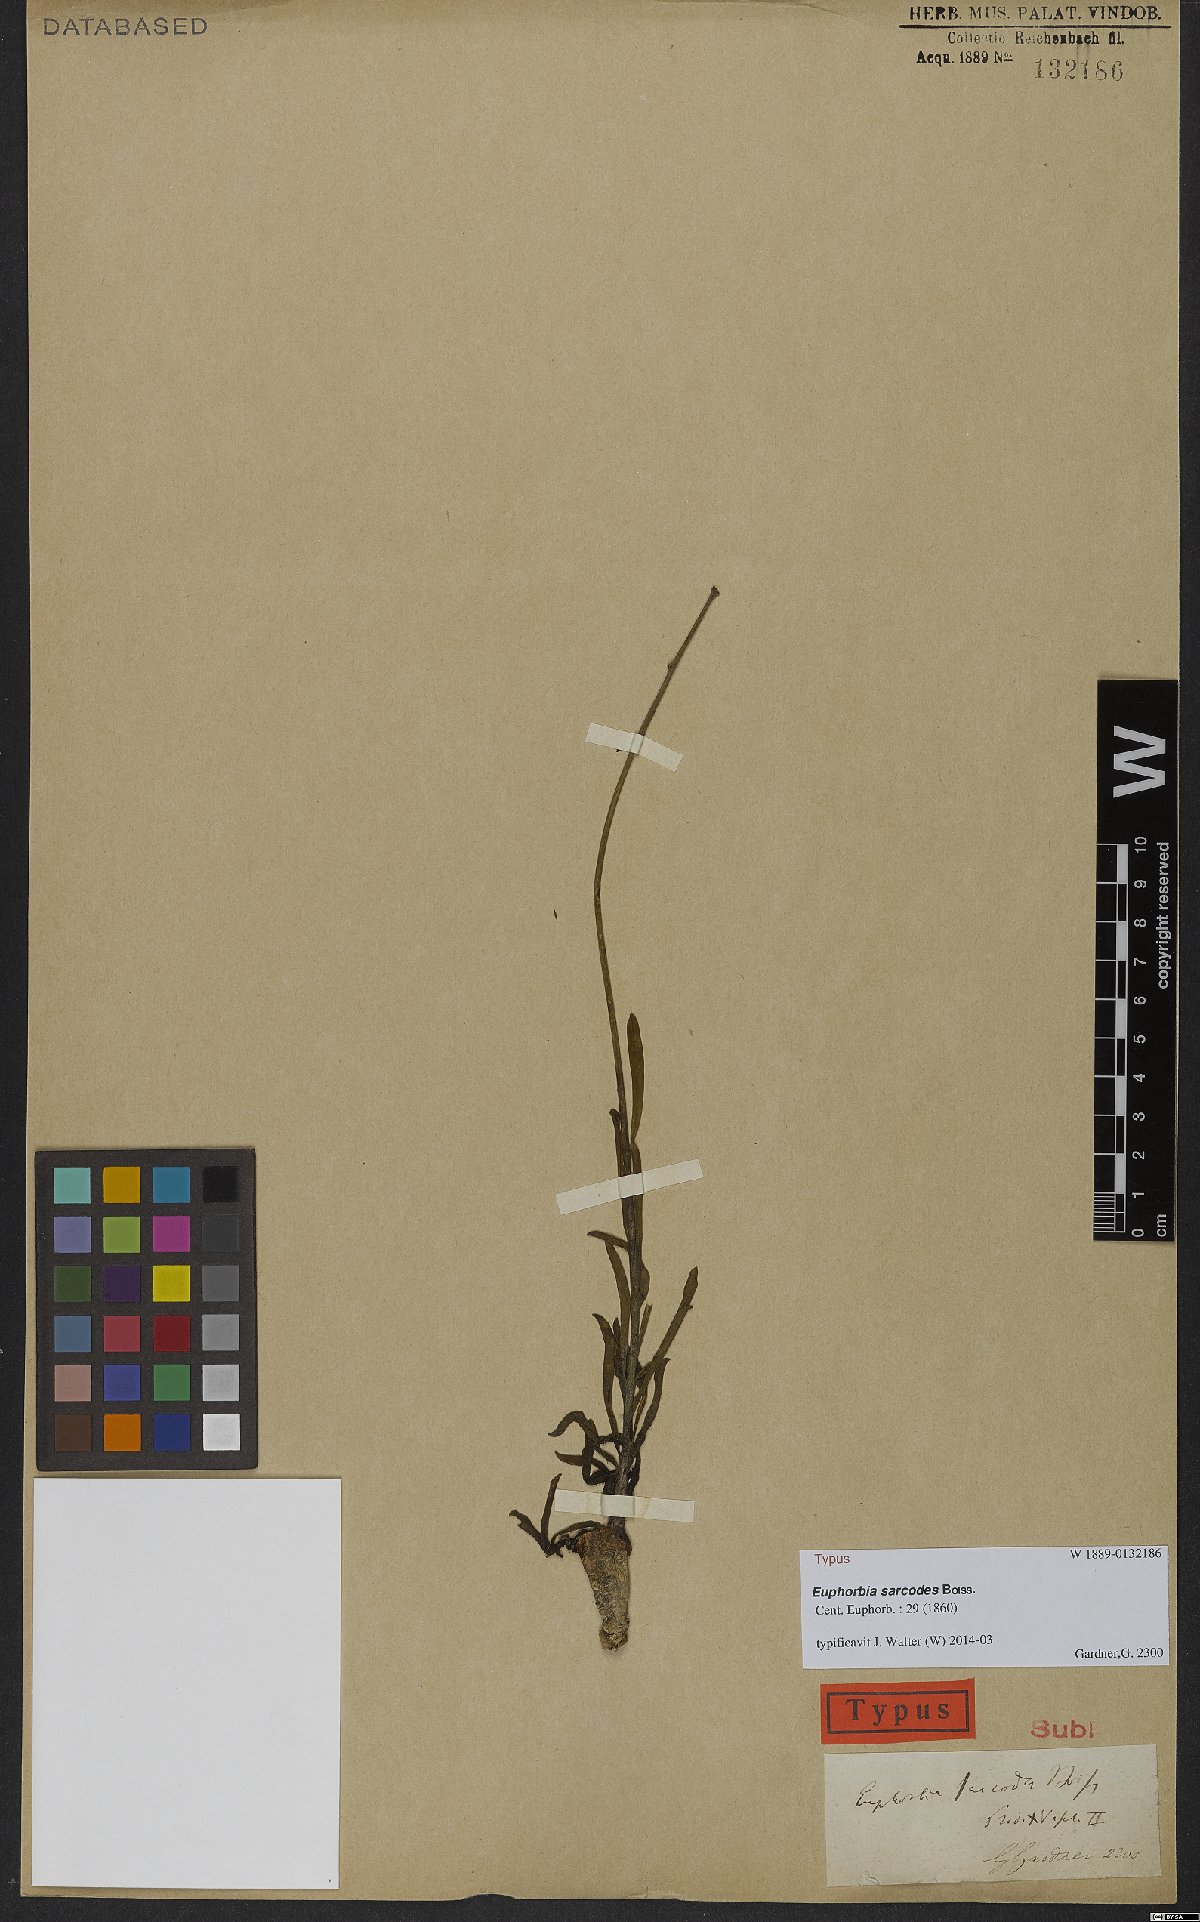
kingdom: Plantae
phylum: Tracheophyta
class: Magnoliopsida
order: Malpighiales
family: Euphorbiaceae
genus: Euphorbia
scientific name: Euphorbia sarcodes
